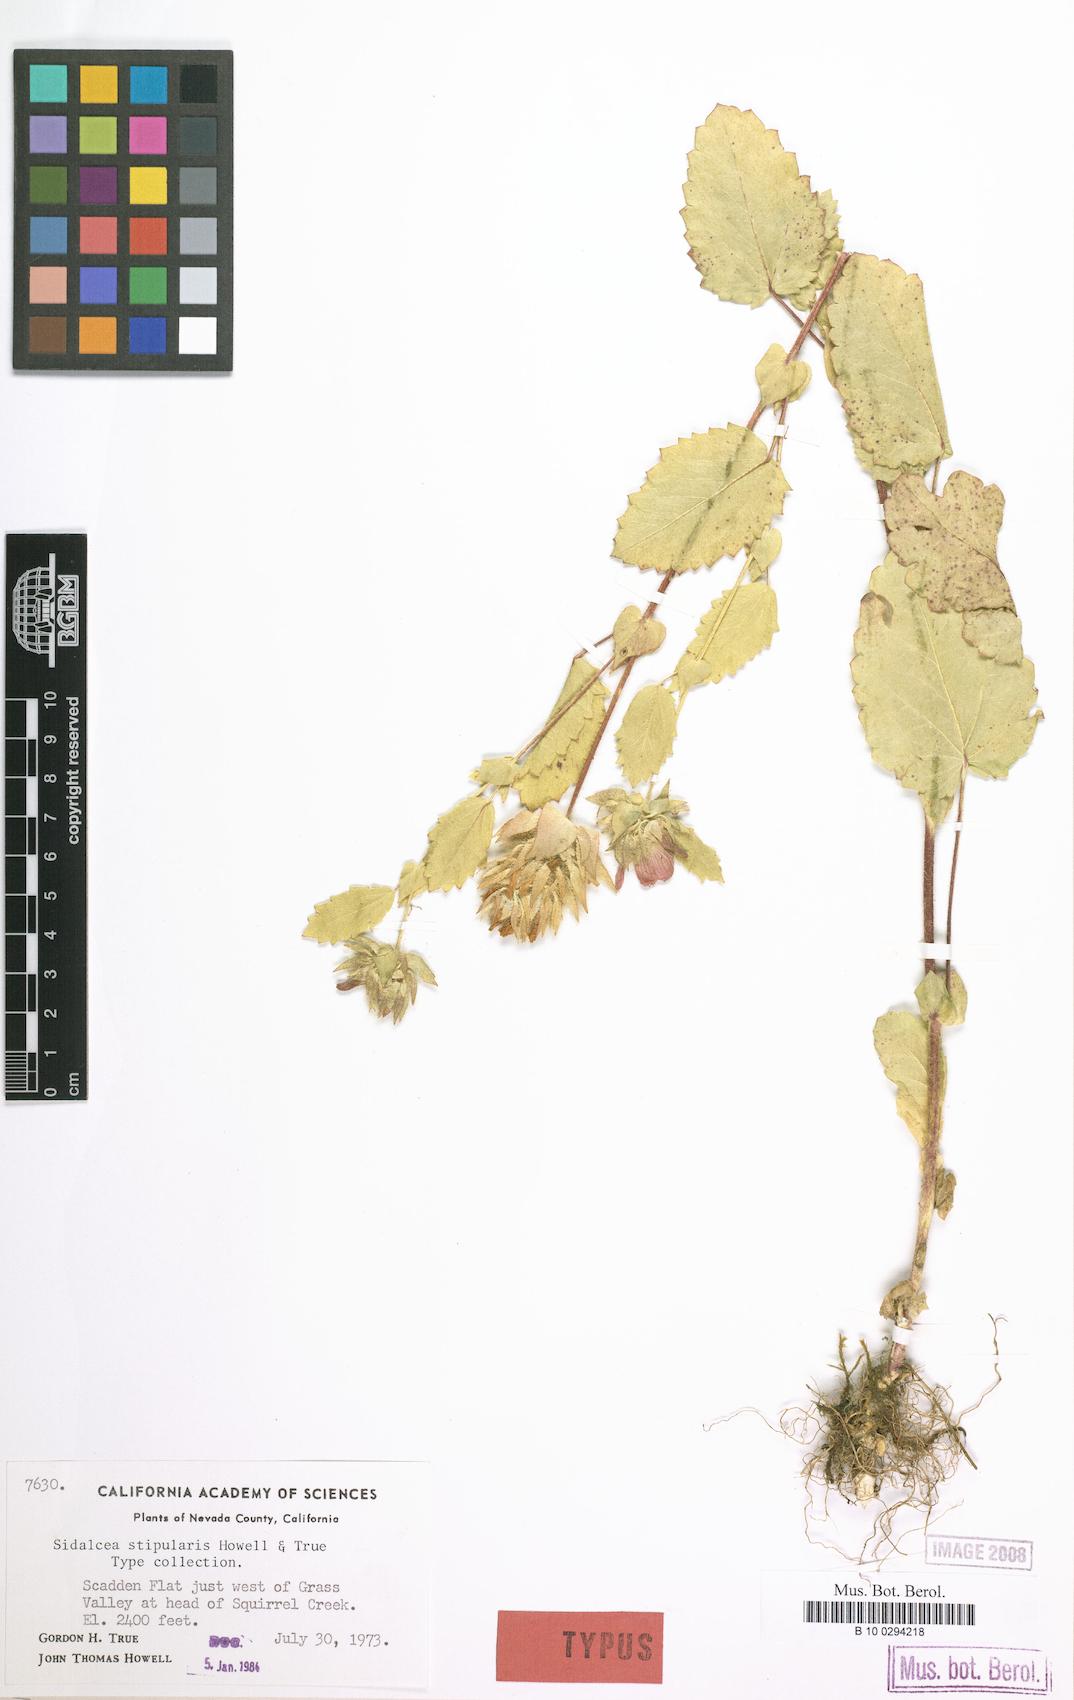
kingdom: Plantae
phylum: Tracheophyta
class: Magnoliopsida
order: Malvales
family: Malvaceae
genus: Sidalcea
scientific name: Sidalcea stipularis
